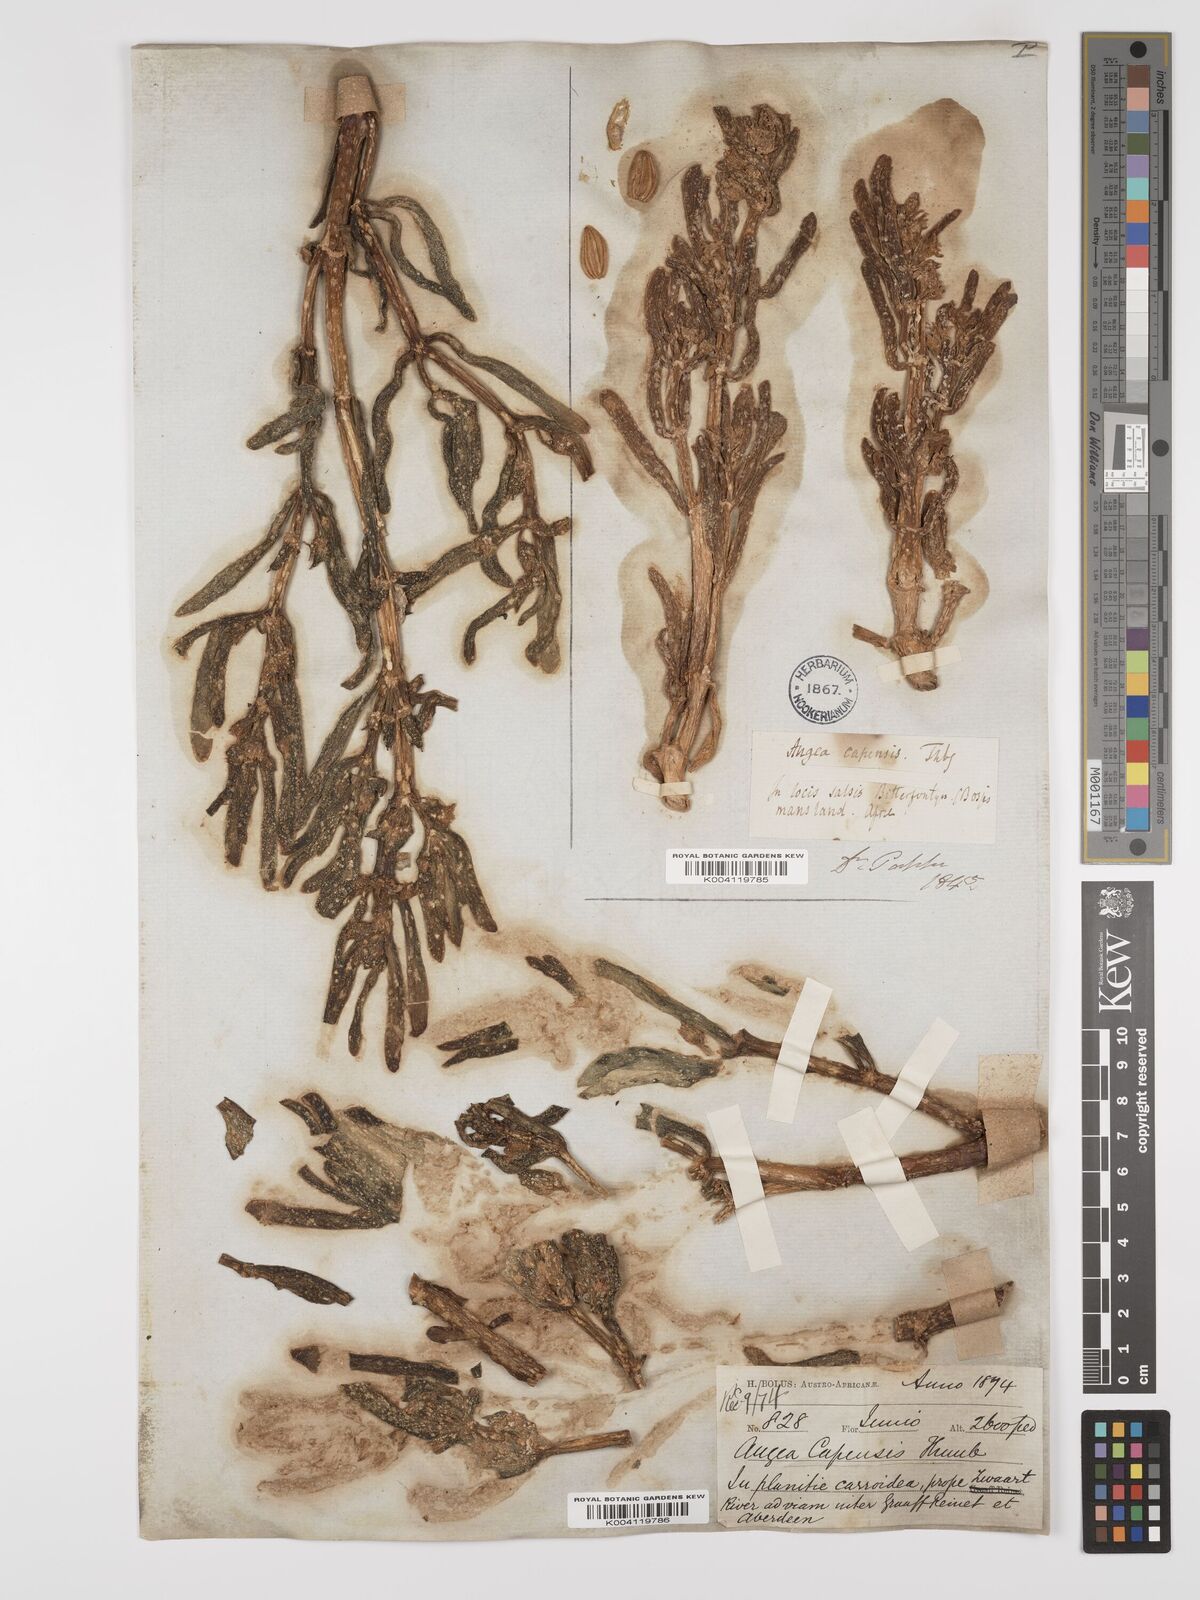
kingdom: Plantae
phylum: Tracheophyta
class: Magnoliopsida
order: Zygophyllales
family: Zygophyllaceae
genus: Augea
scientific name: Augea capensis
